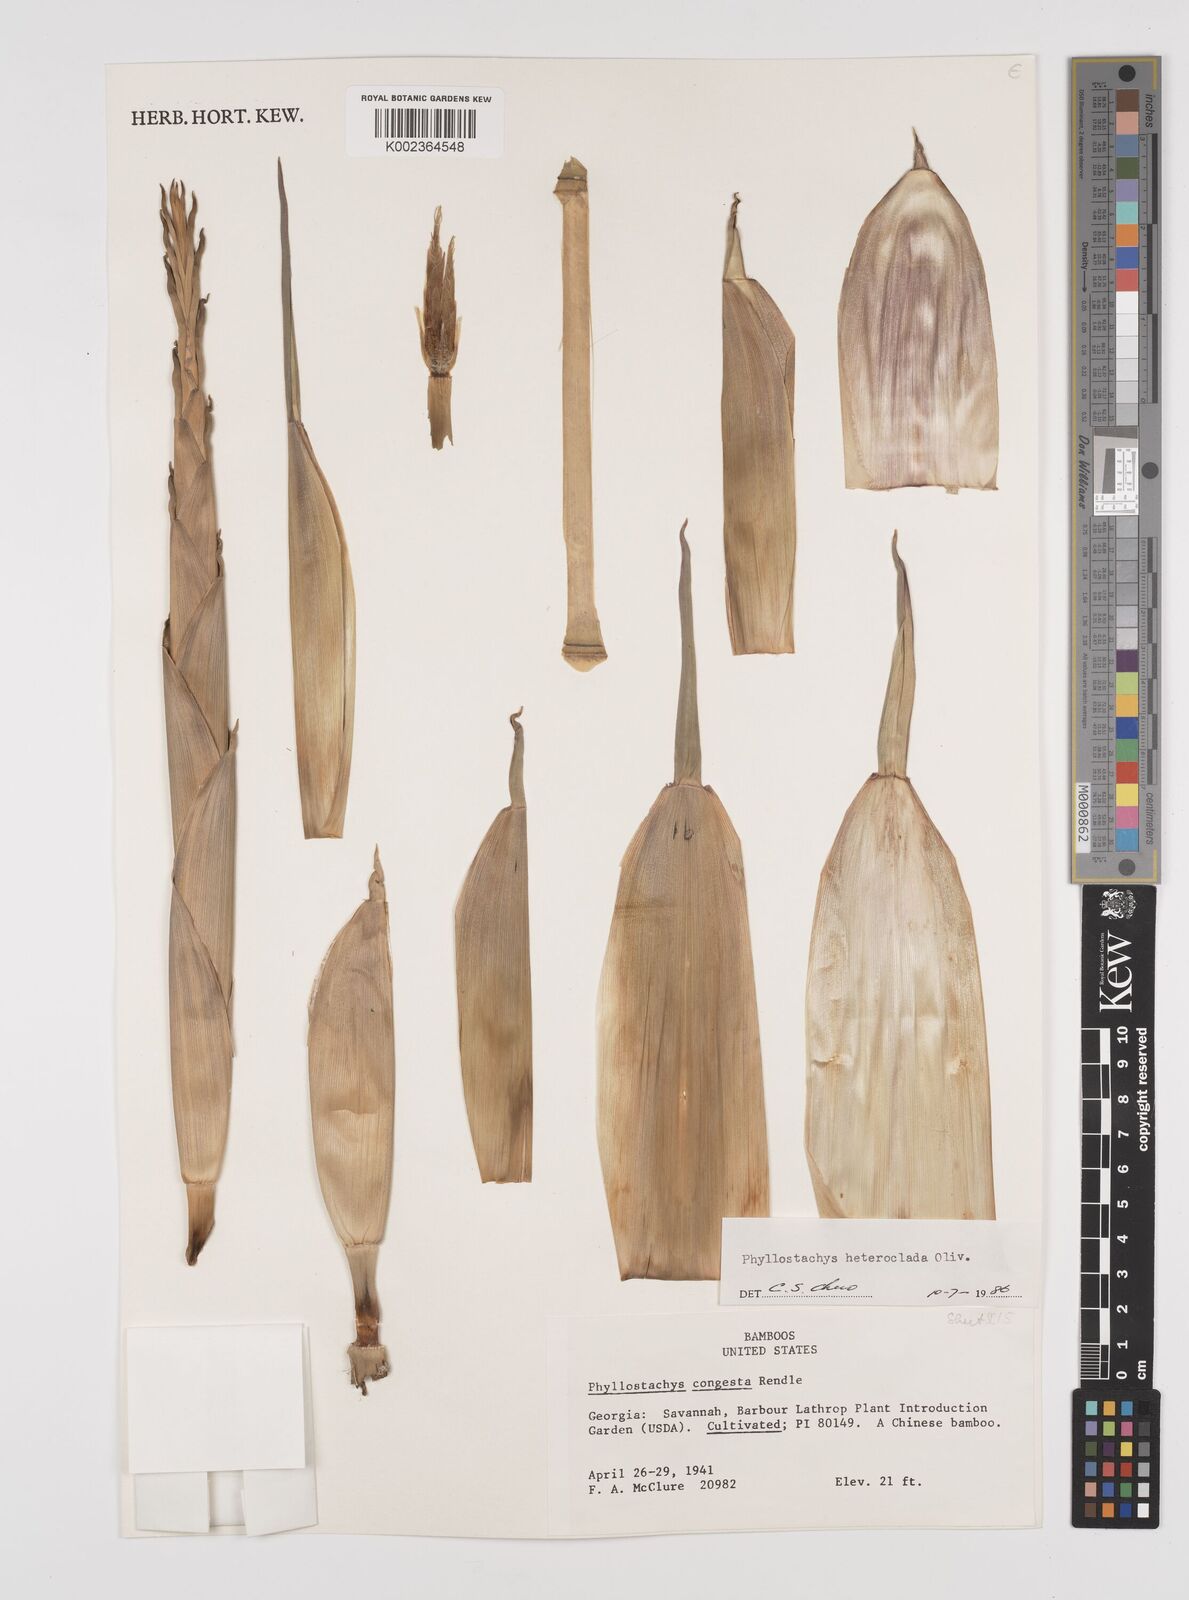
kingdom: Plantae
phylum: Tracheophyta
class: Liliopsida
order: Poales
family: Poaceae
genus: Phyllostachys
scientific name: Phyllostachys heteroclada
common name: Fishscale bamboo
